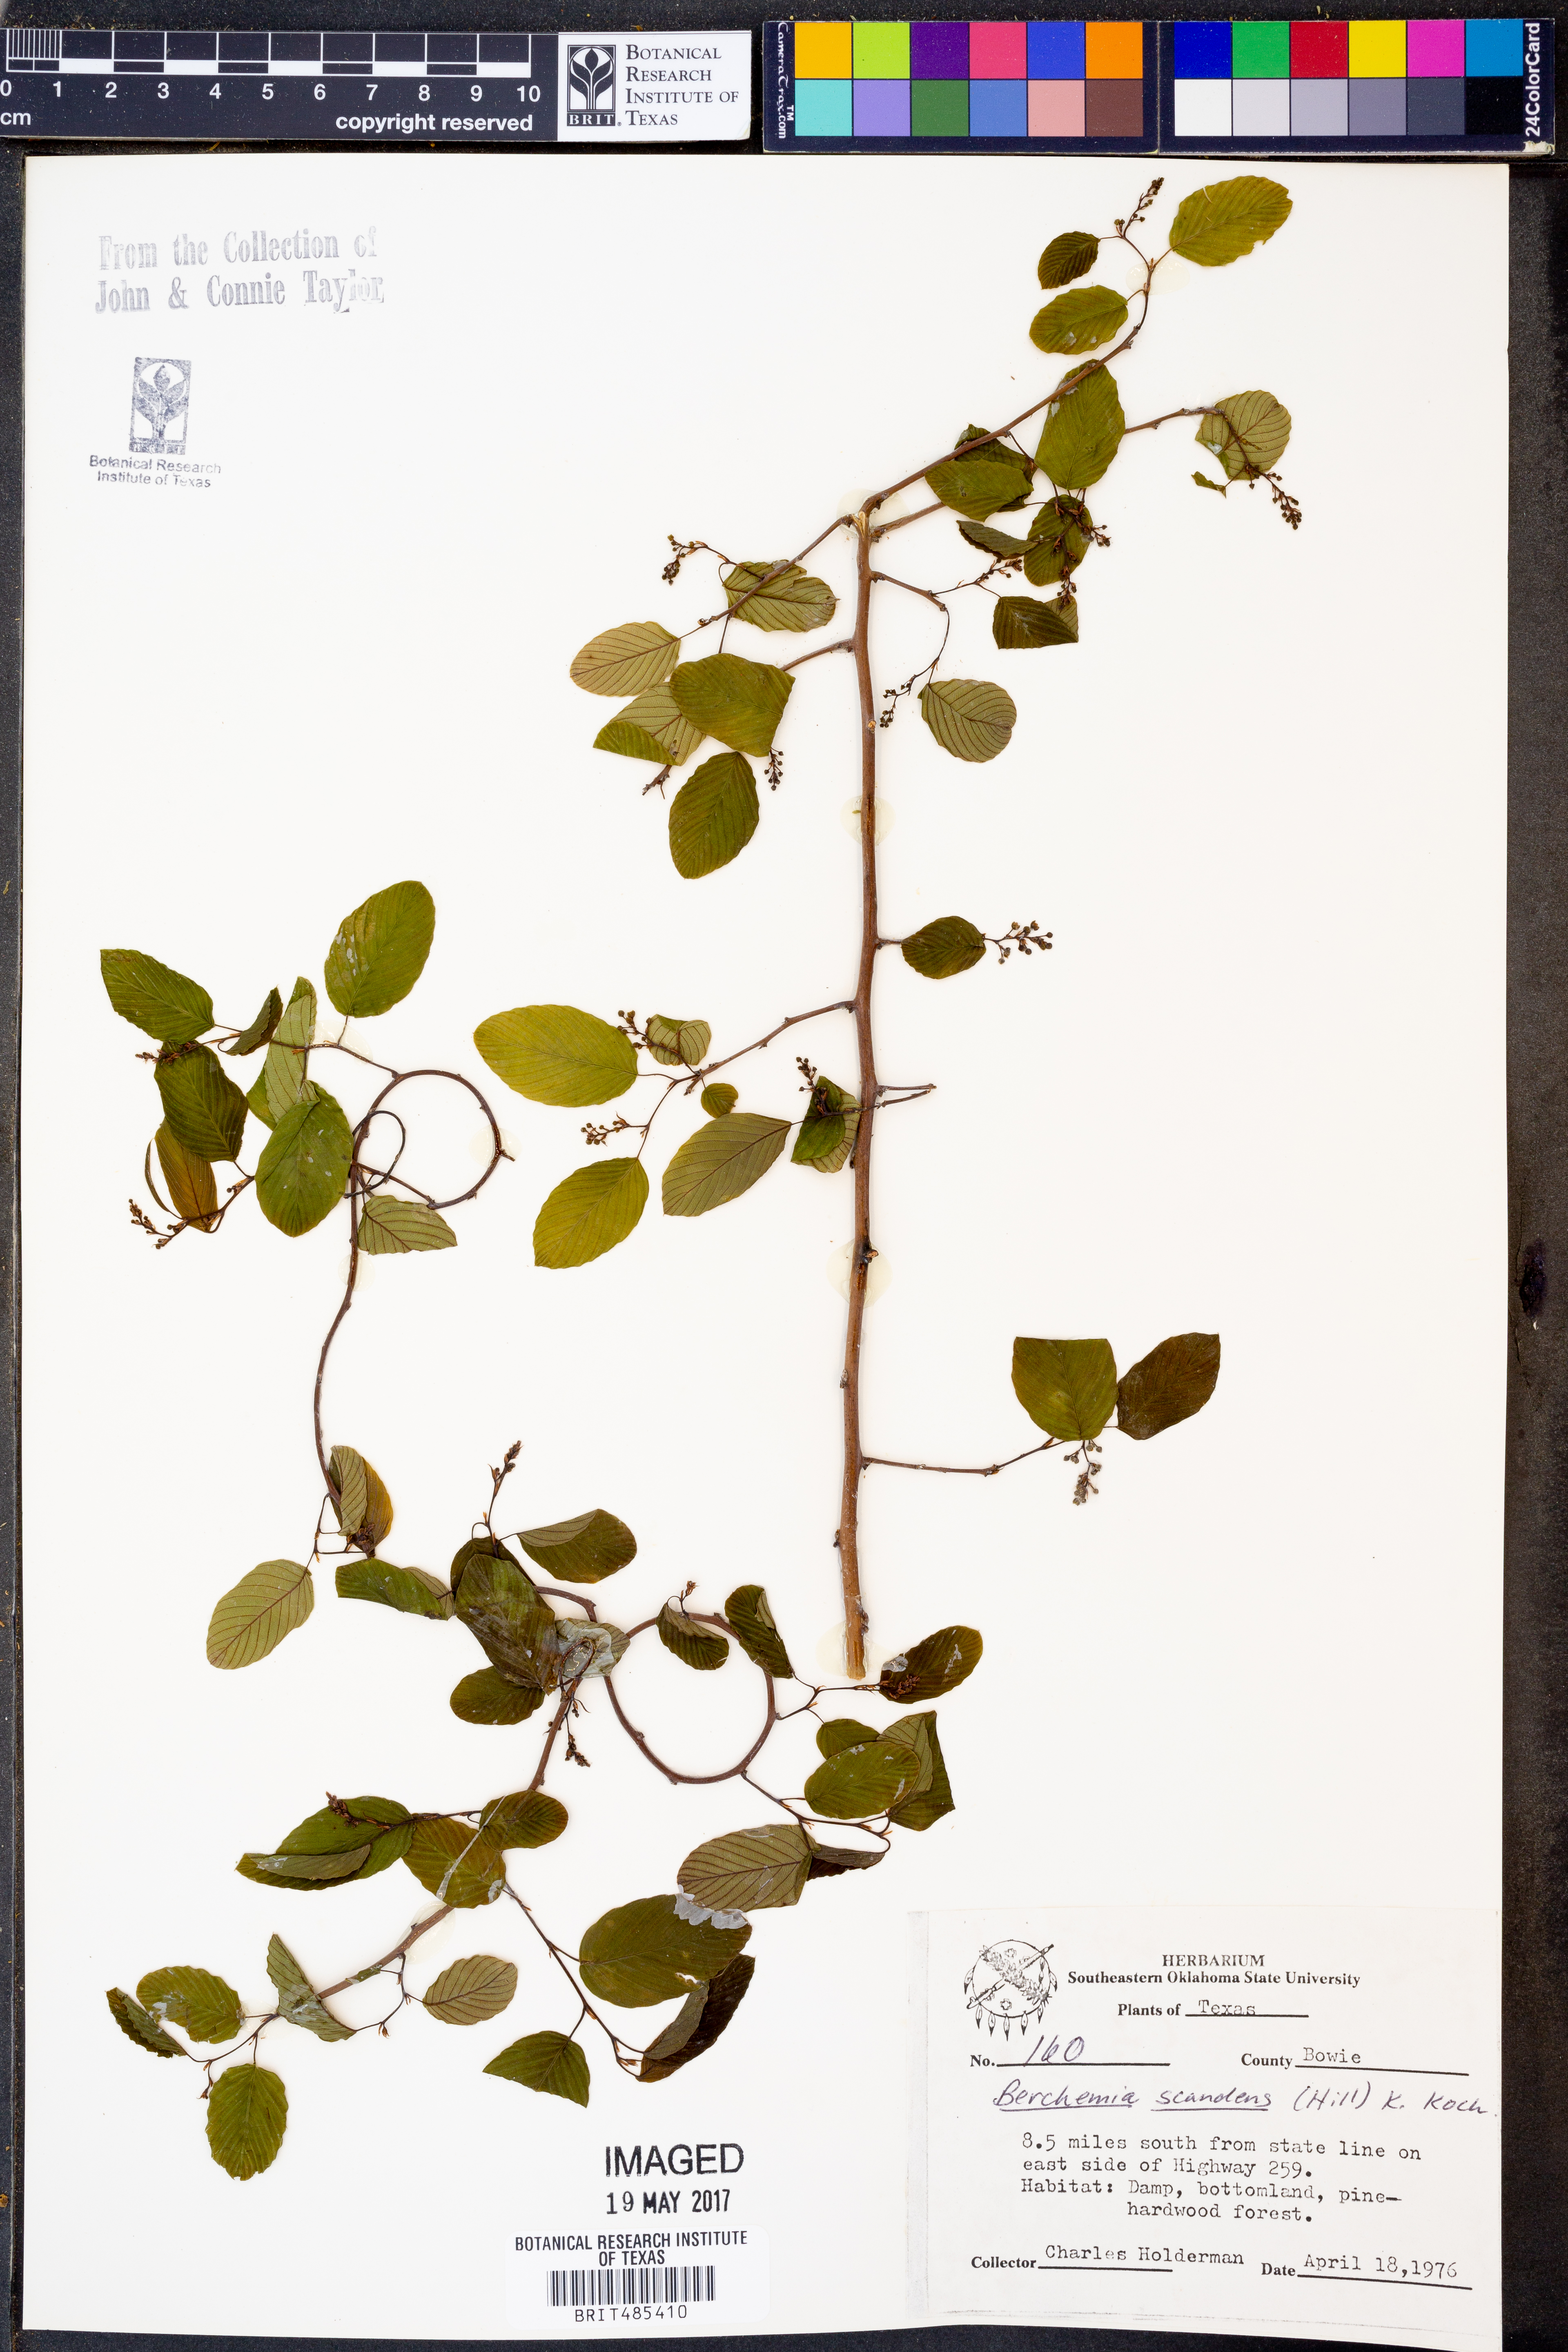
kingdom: Plantae
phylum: Tracheophyta
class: Magnoliopsida
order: Rosales
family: Rhamnaceae
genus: Berchemia
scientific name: Berchemia scandens
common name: Supplejack
